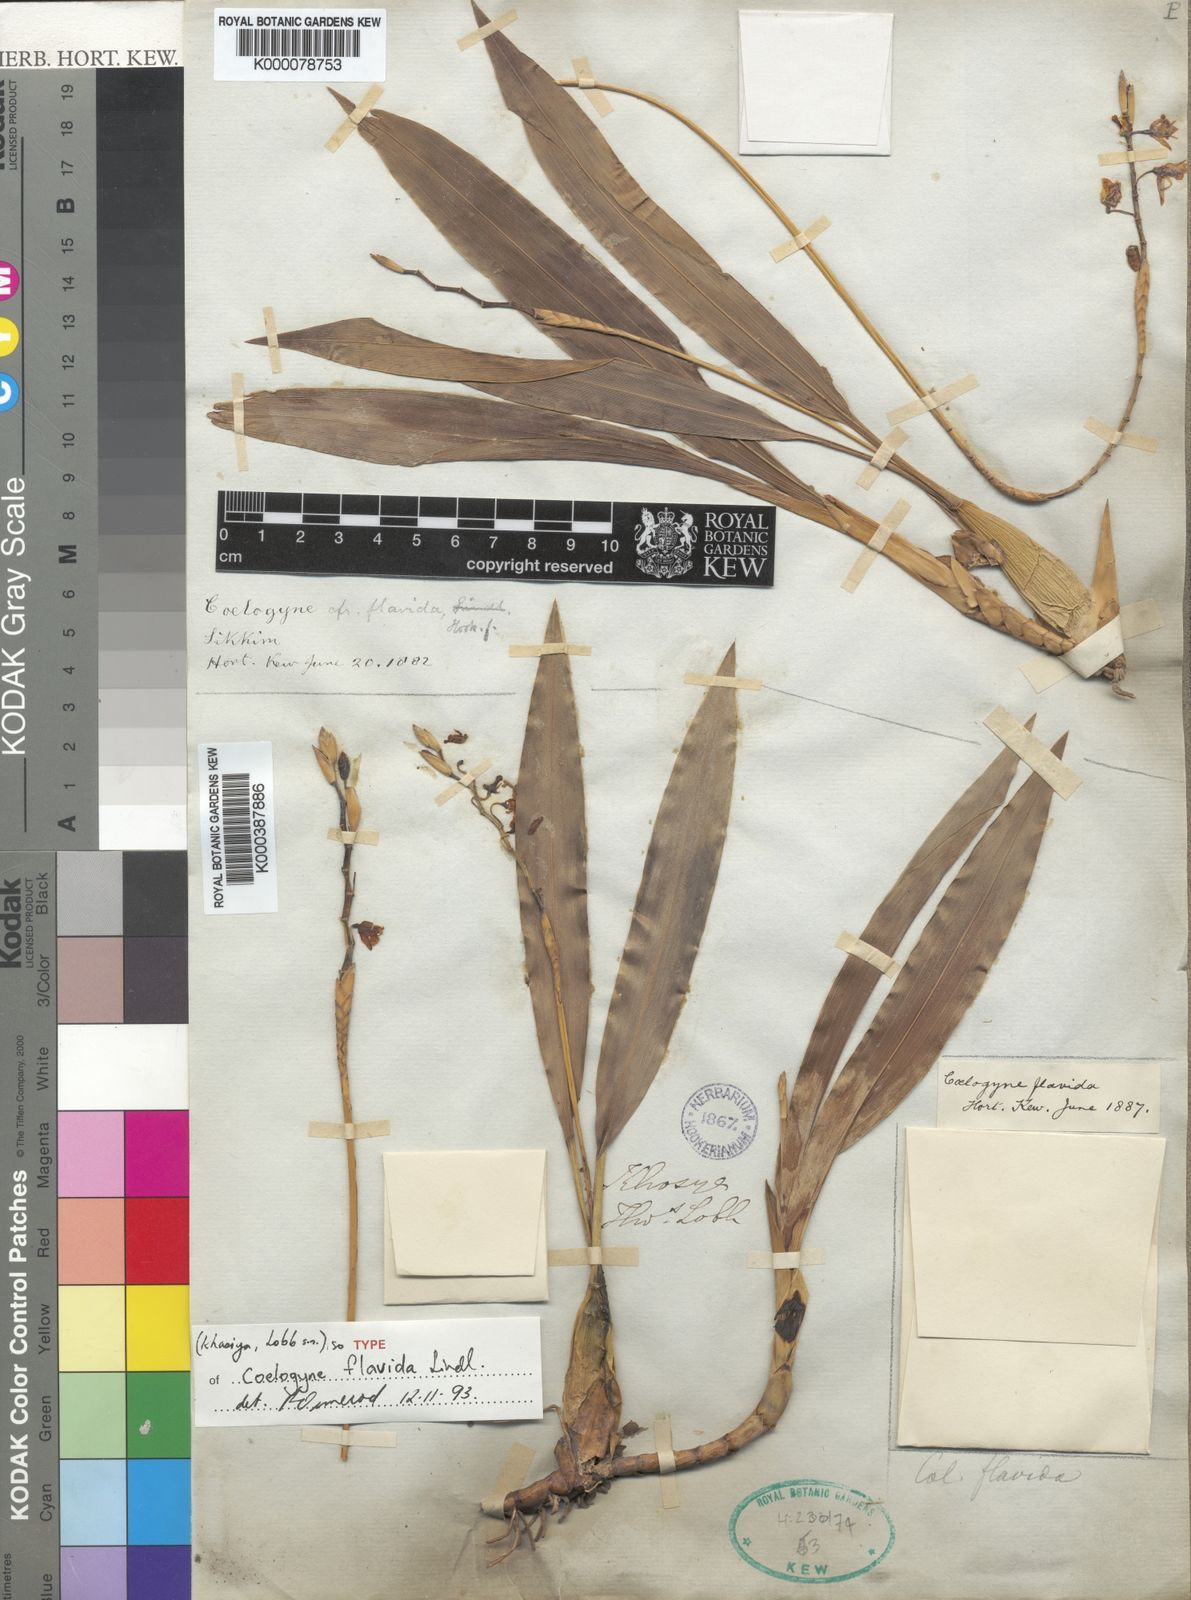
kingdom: Plantae
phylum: Tracheophyta
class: Liliopsida
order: Asparagales
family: Orchidaceae
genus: Coelogyne
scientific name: Coelogyne prolifera
